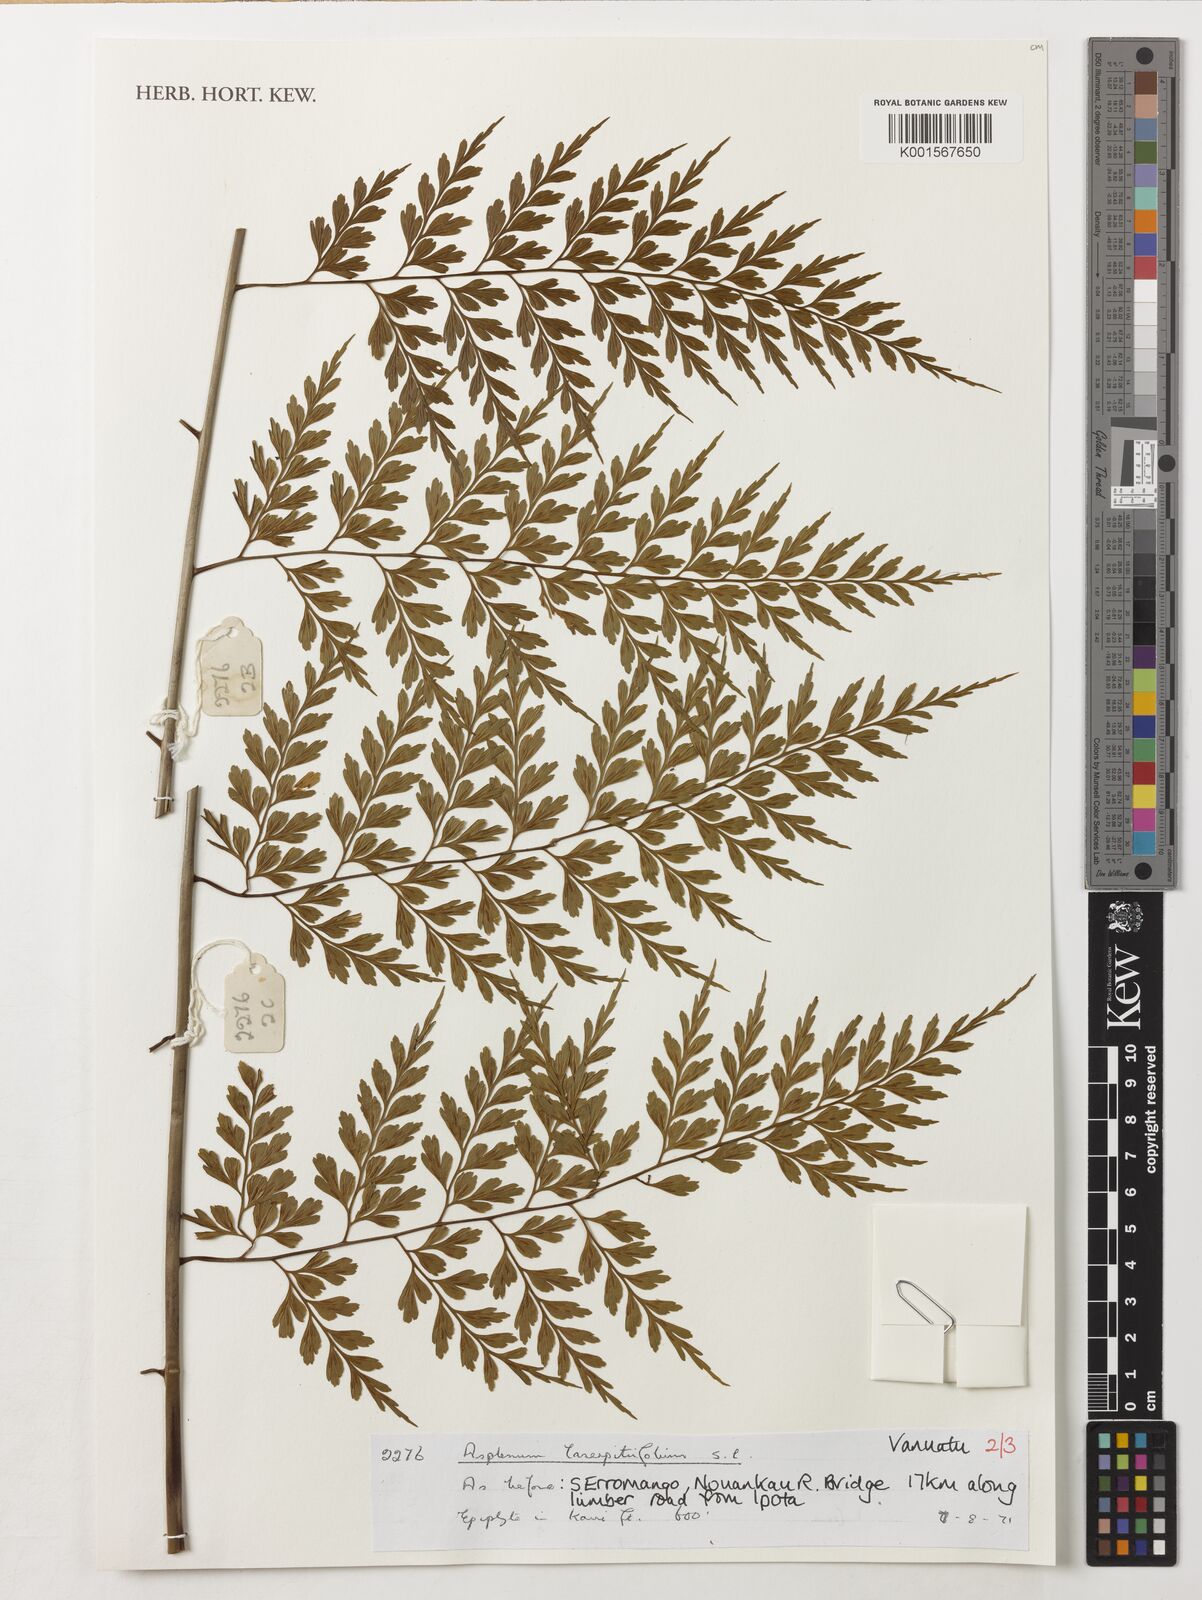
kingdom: Plantae
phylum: Tracheophyta
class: Polypodiopsida
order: Polypodiales
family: Aspleniaceae
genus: Asplenium
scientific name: Asplenium laserpitiifolium
